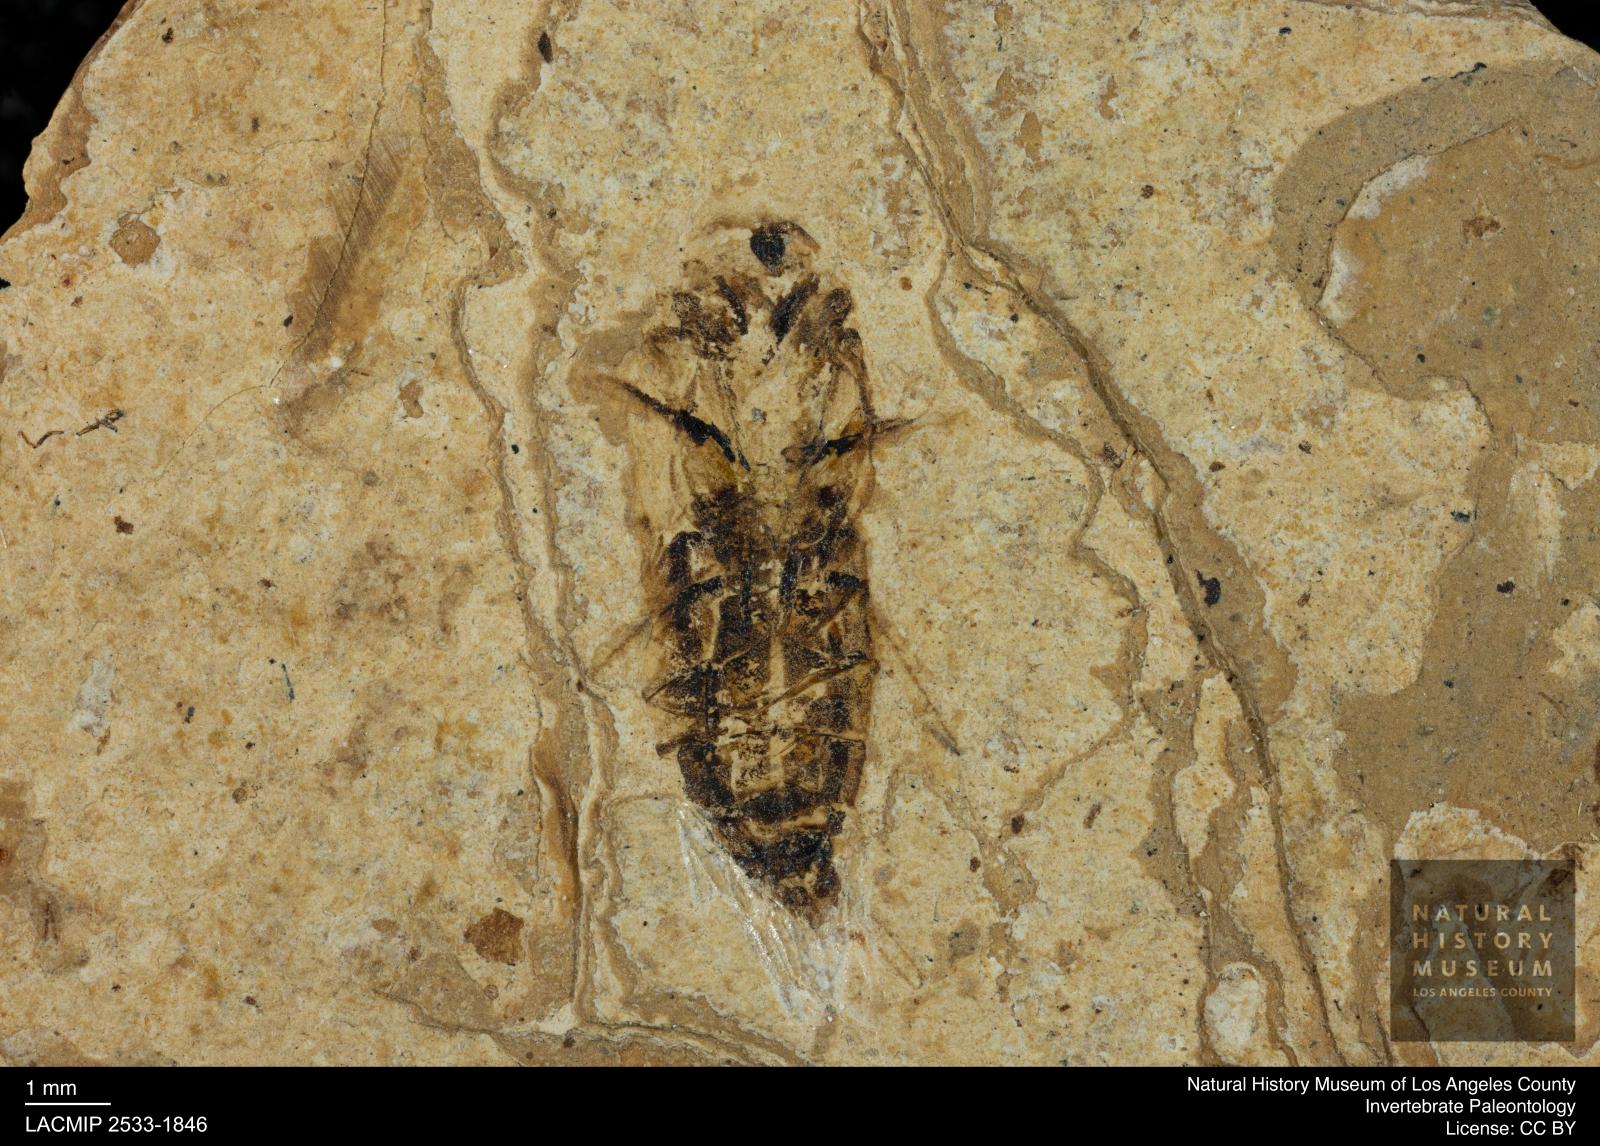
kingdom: Animalia
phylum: Arthropoda
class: Insecta
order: Hemiptera
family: Notonectidae
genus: Notonecta
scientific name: Notonecta
